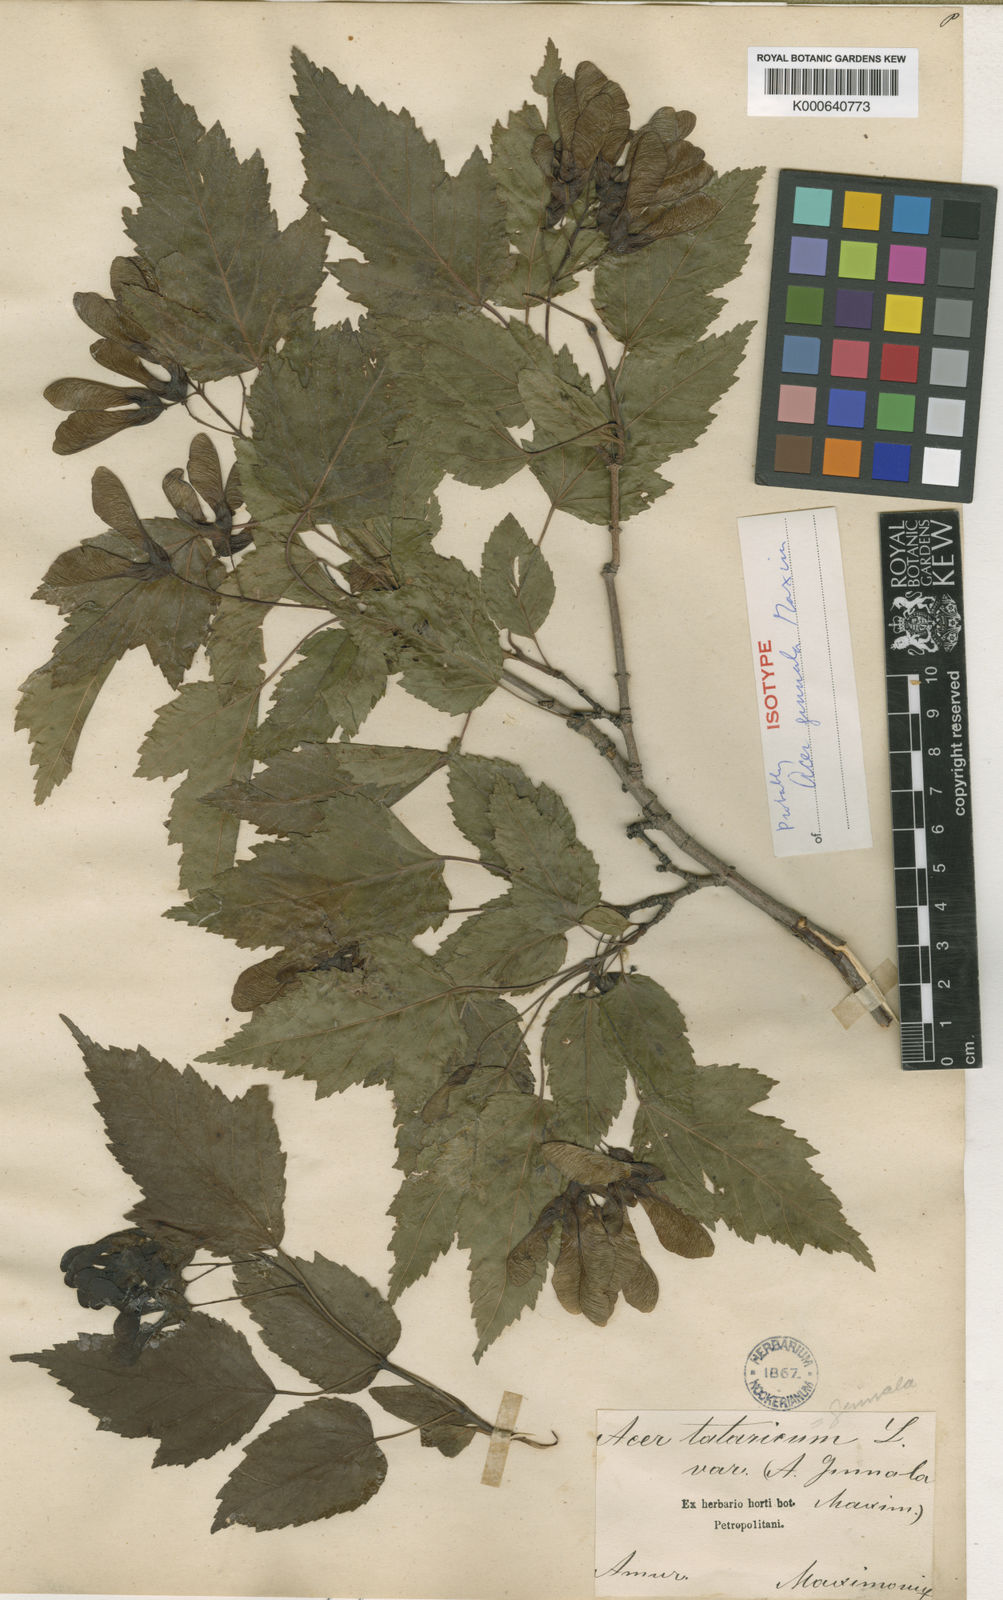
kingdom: Plantae
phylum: Tracheophyta
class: Magnoliopsida
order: Sapindales
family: Sapindaceae
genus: Acer
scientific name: Acer tataricum
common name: Tartar maple
